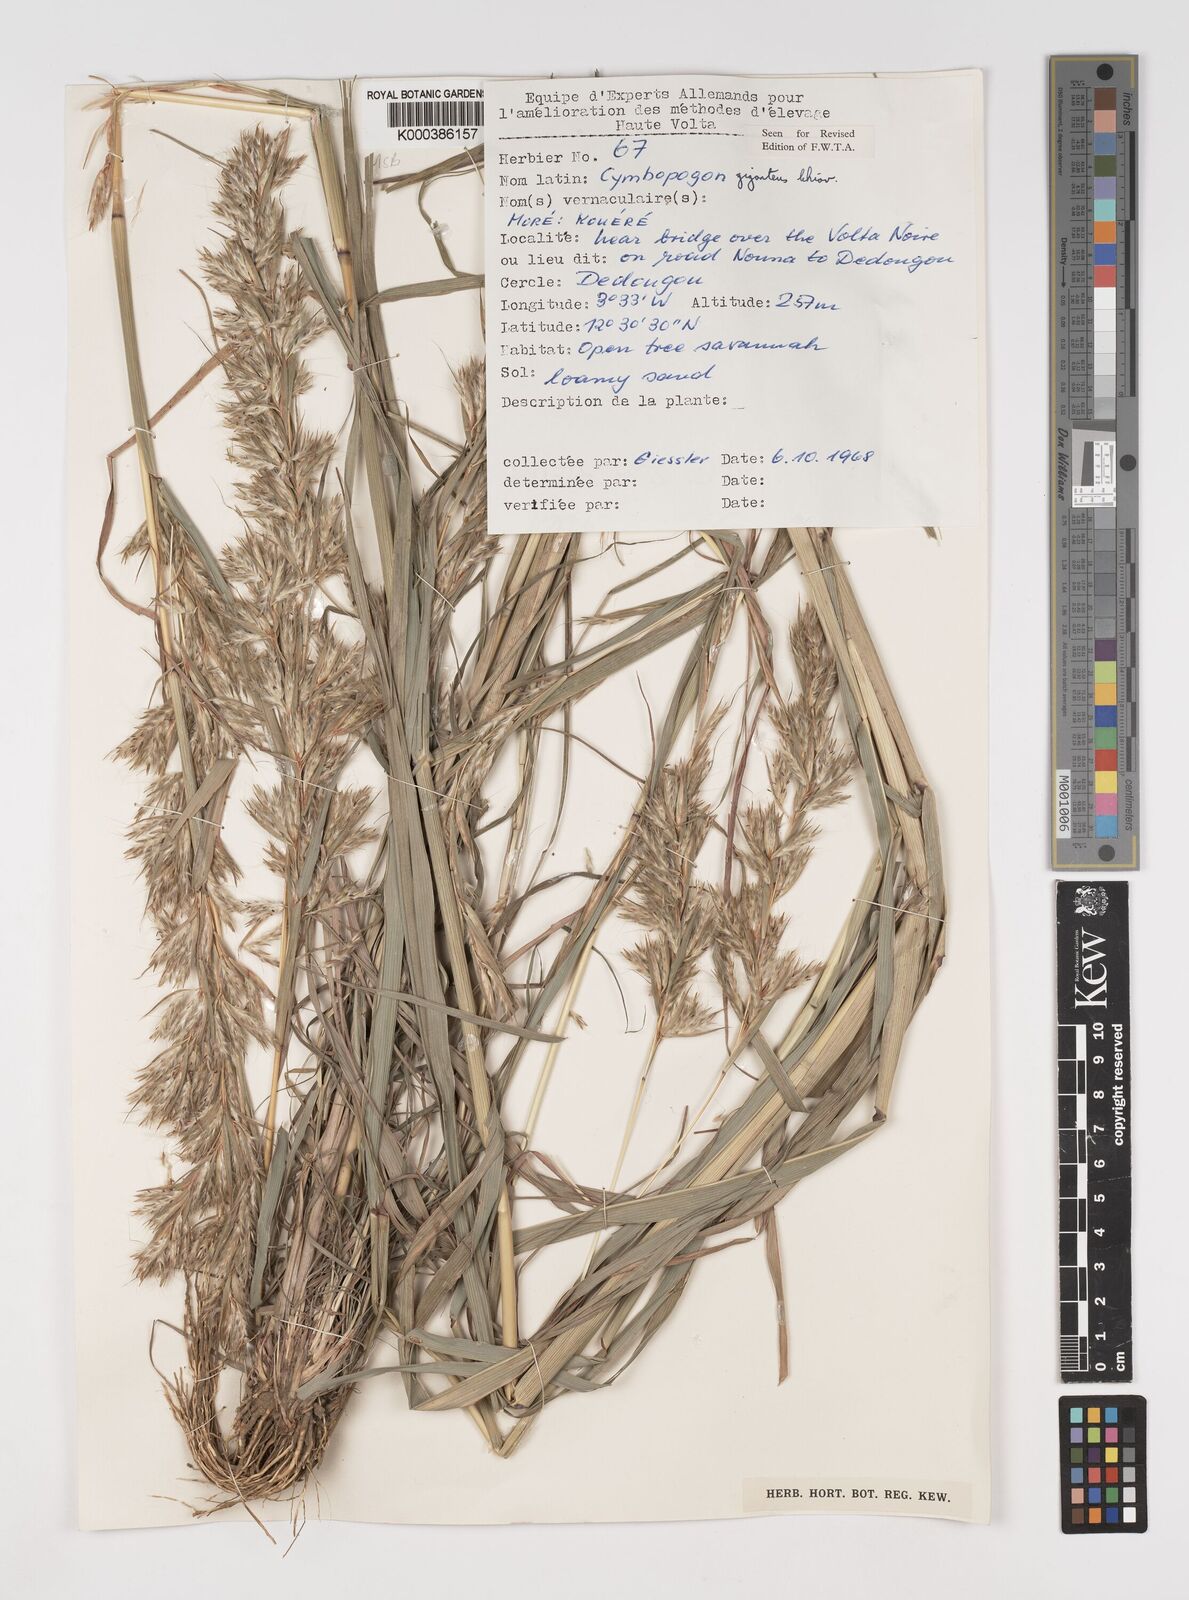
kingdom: Plantae
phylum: Tracheophyta
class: Liliopsida
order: Poales
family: Poaceae
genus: Cymbopogon
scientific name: Cymbopogon giganteus
